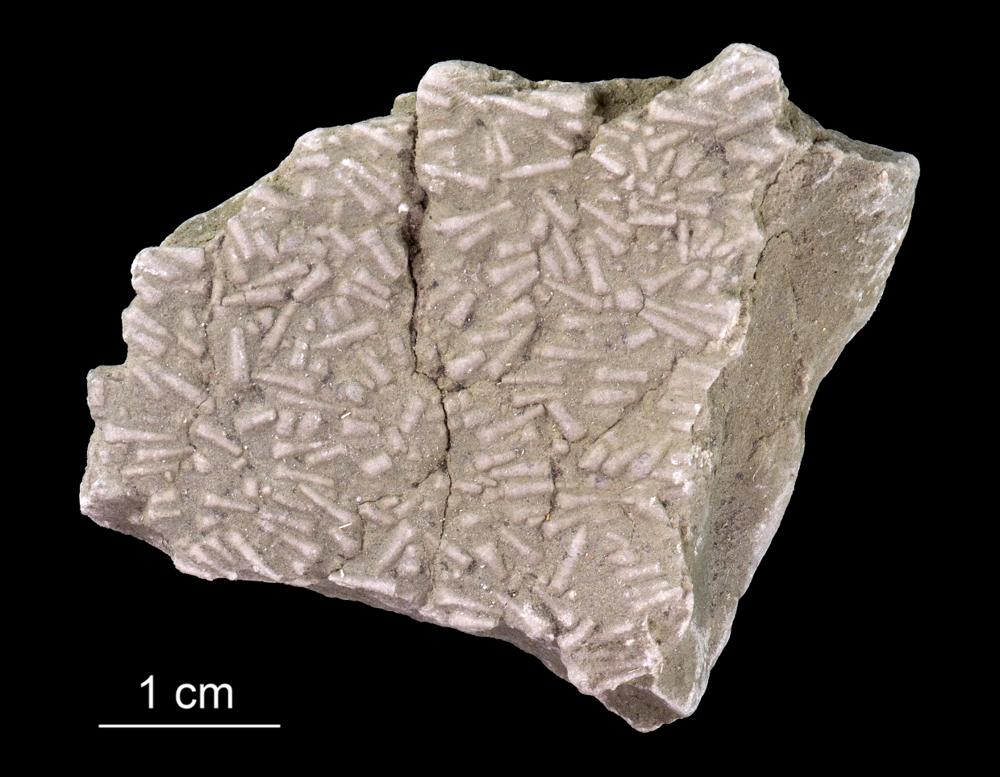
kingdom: Animalia
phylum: Annelida
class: Polychaeta
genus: Volborthella
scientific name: Volborthella tenuis
